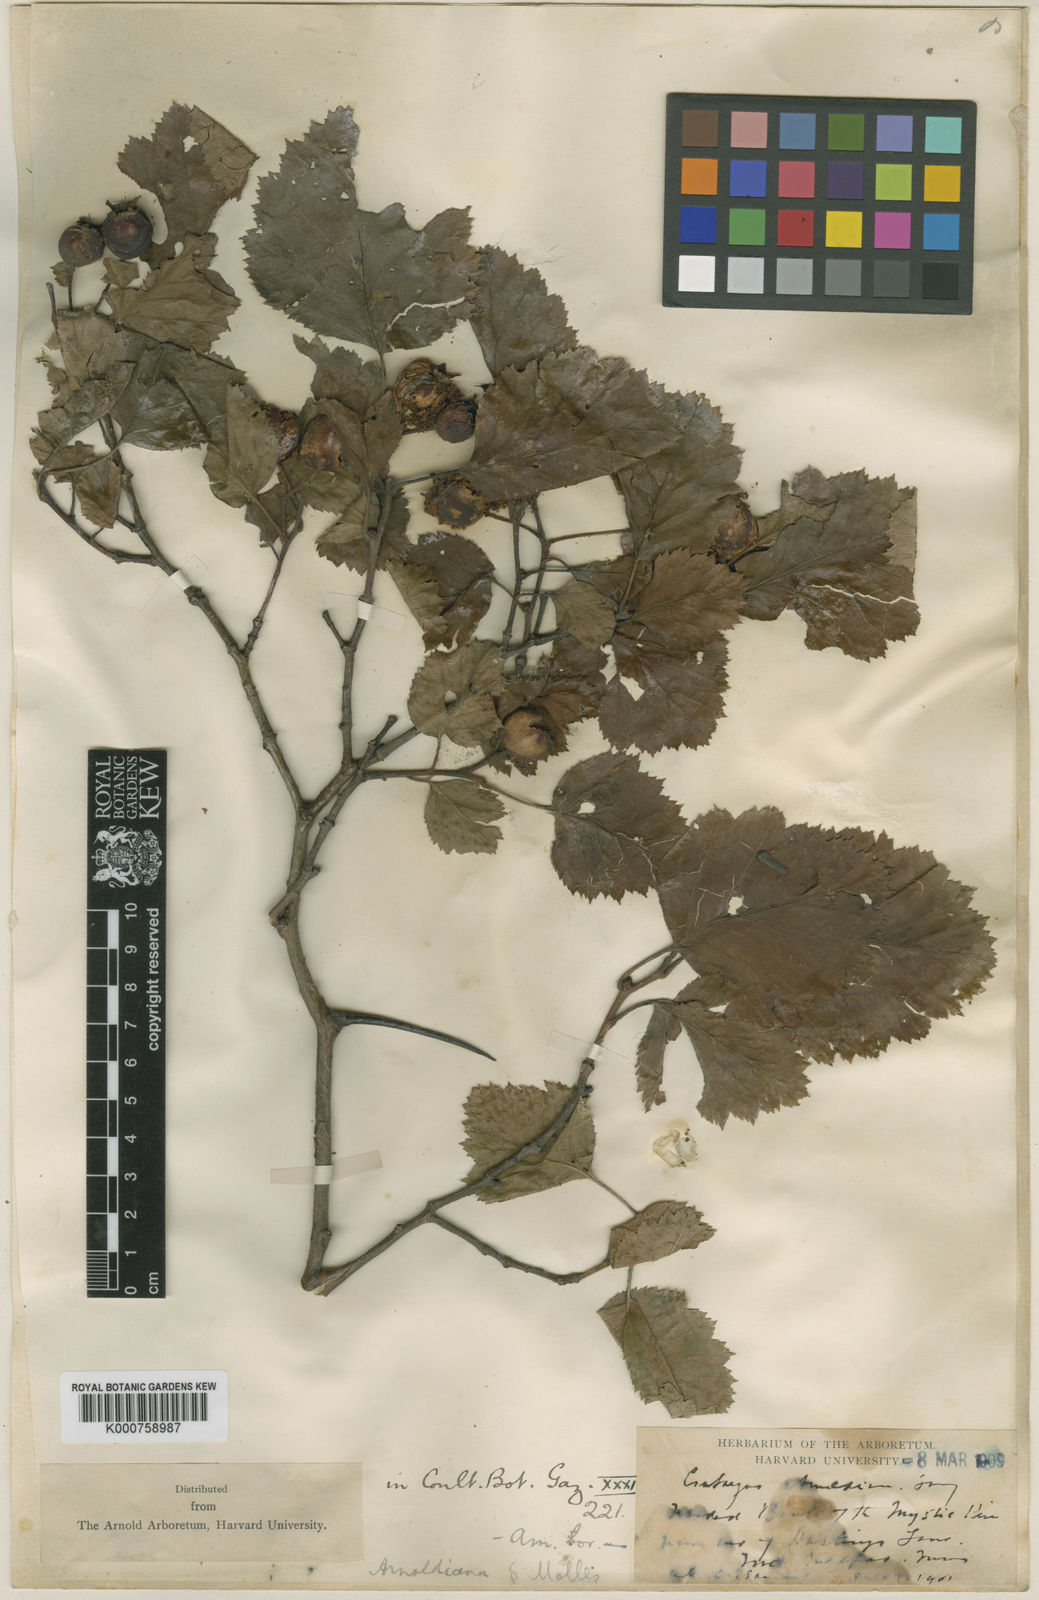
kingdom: Plantae
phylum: Tracheophyta
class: Magnoliopsida
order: Rosales
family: Rosaceae
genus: Crataegus
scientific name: Crataegus holmesiana
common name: Holmes' hawthorn
